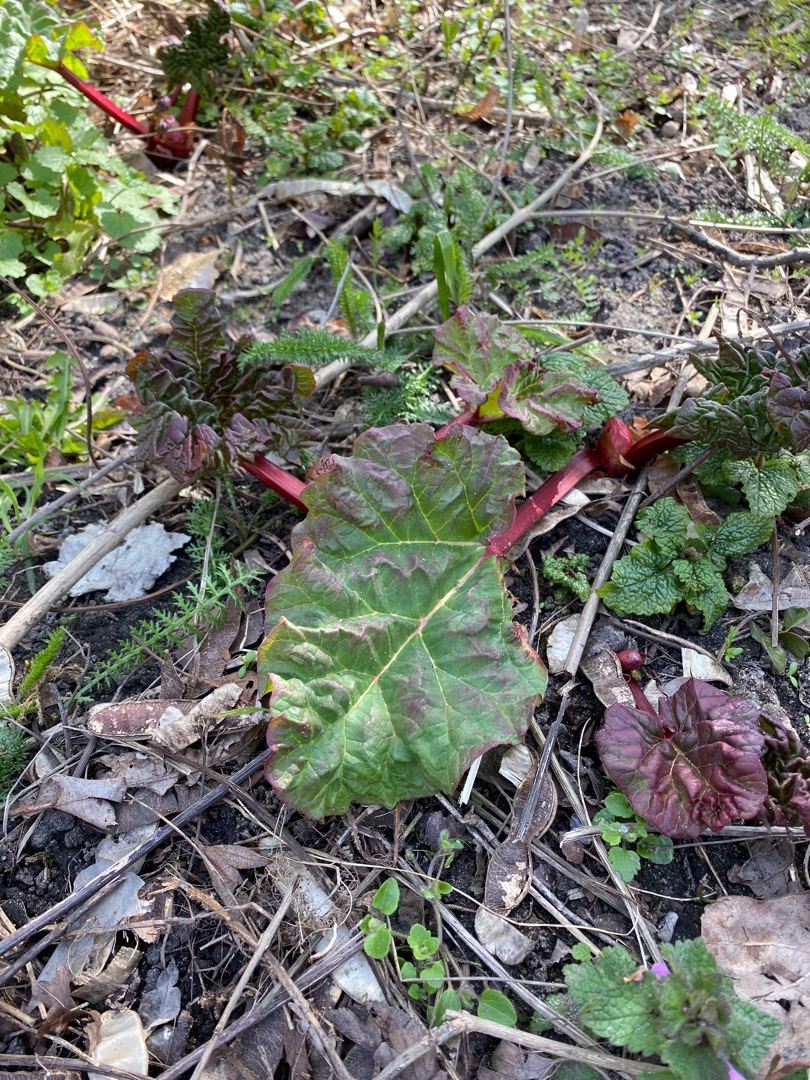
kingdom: Plantae
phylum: Tracheophyta
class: Magnoliopsida
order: Caryophyllales
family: Polygonaceae
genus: Rheum
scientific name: Rheum rhabarbarum
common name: Rabarber
